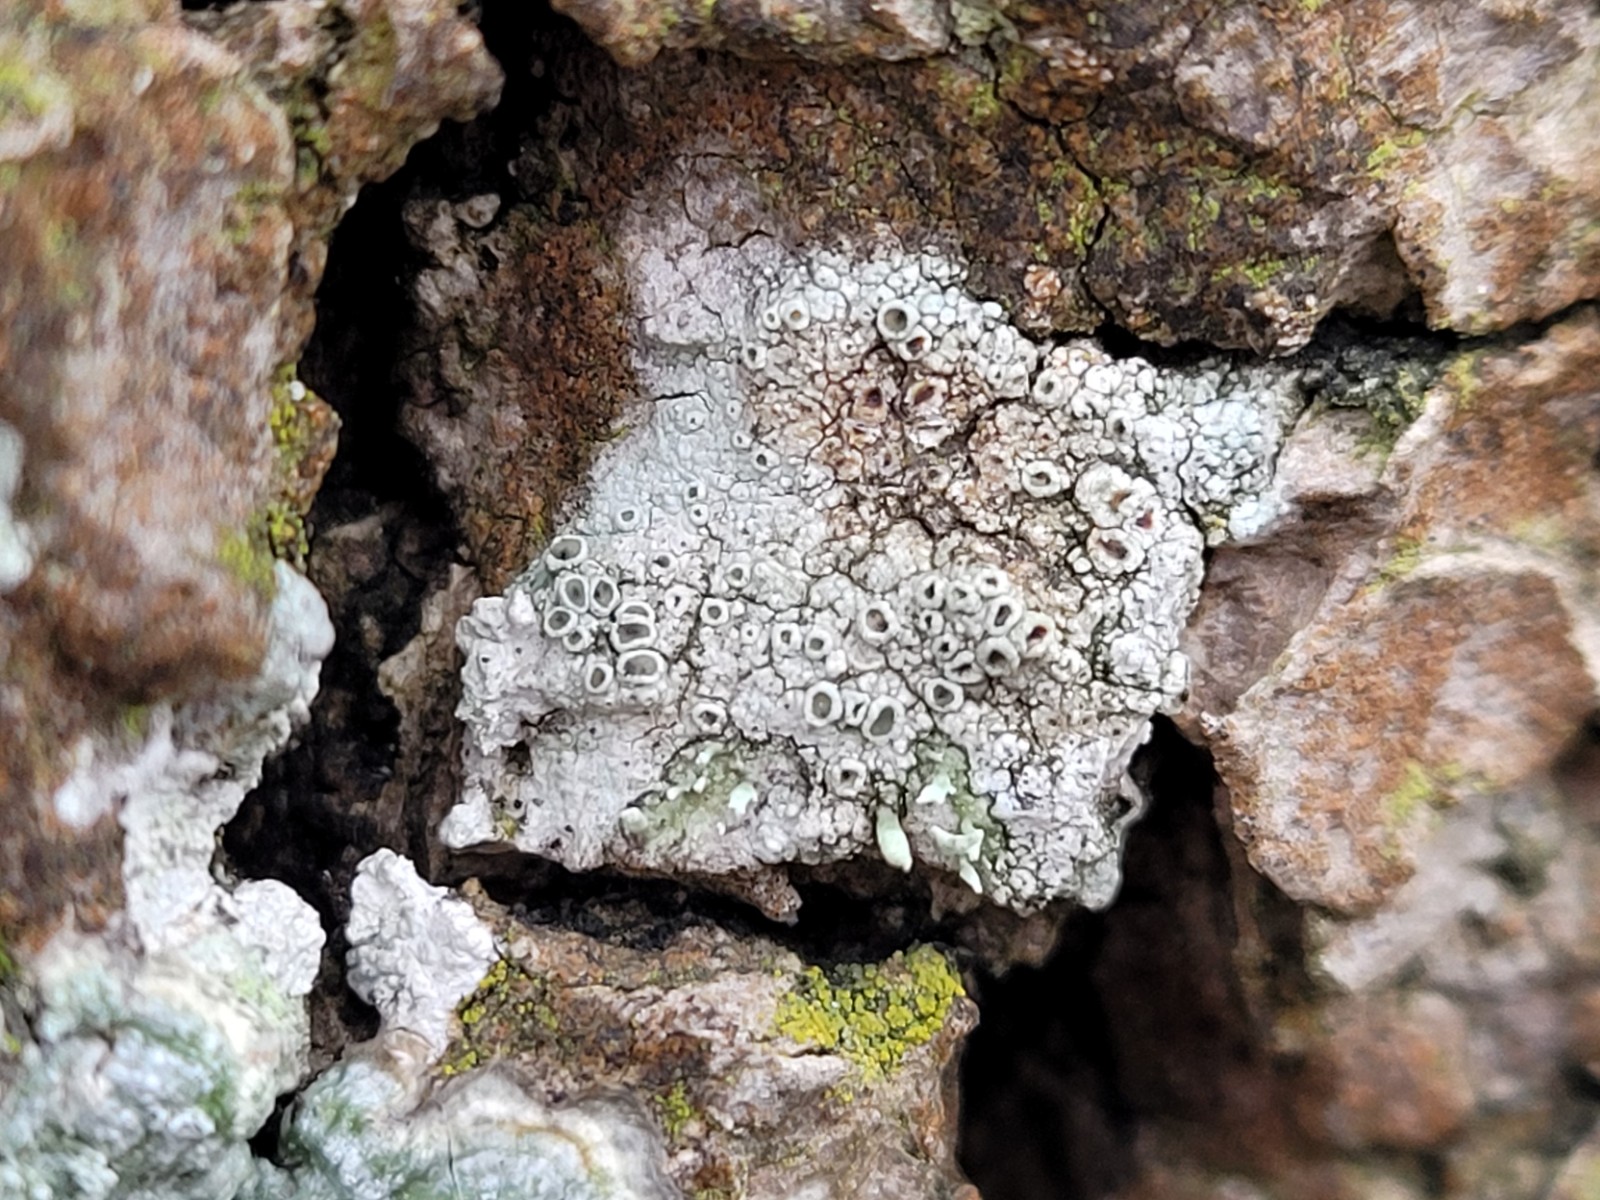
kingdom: Fungi
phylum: Ascomycota
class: Lecanoromycetes
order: Lecanorales
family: Lecanoraceae
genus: Lecanora
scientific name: Lecanora chlarotera
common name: brun kantskivelav
